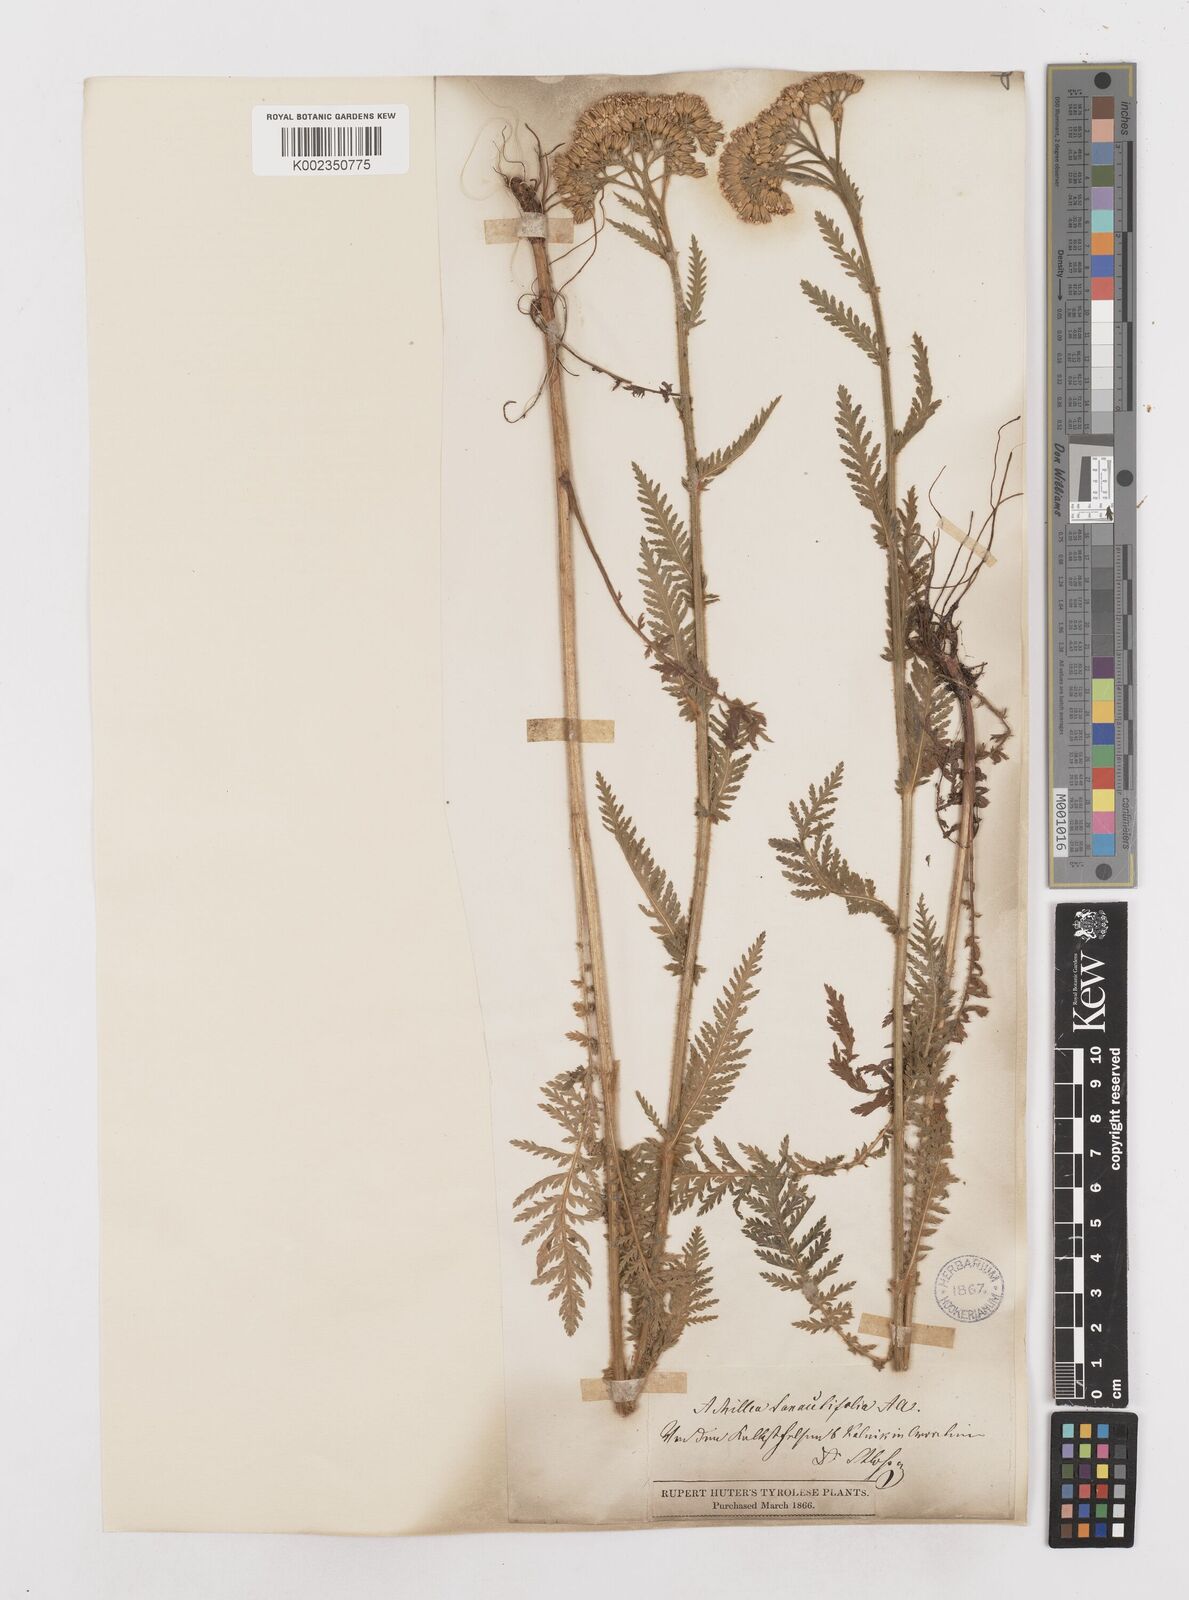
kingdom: Plantae
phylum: Tracheophyta
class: Magnoliopsida
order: Asterales
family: Asteraceae
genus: Achillea
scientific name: Achillea distans
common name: Tall yarrow
